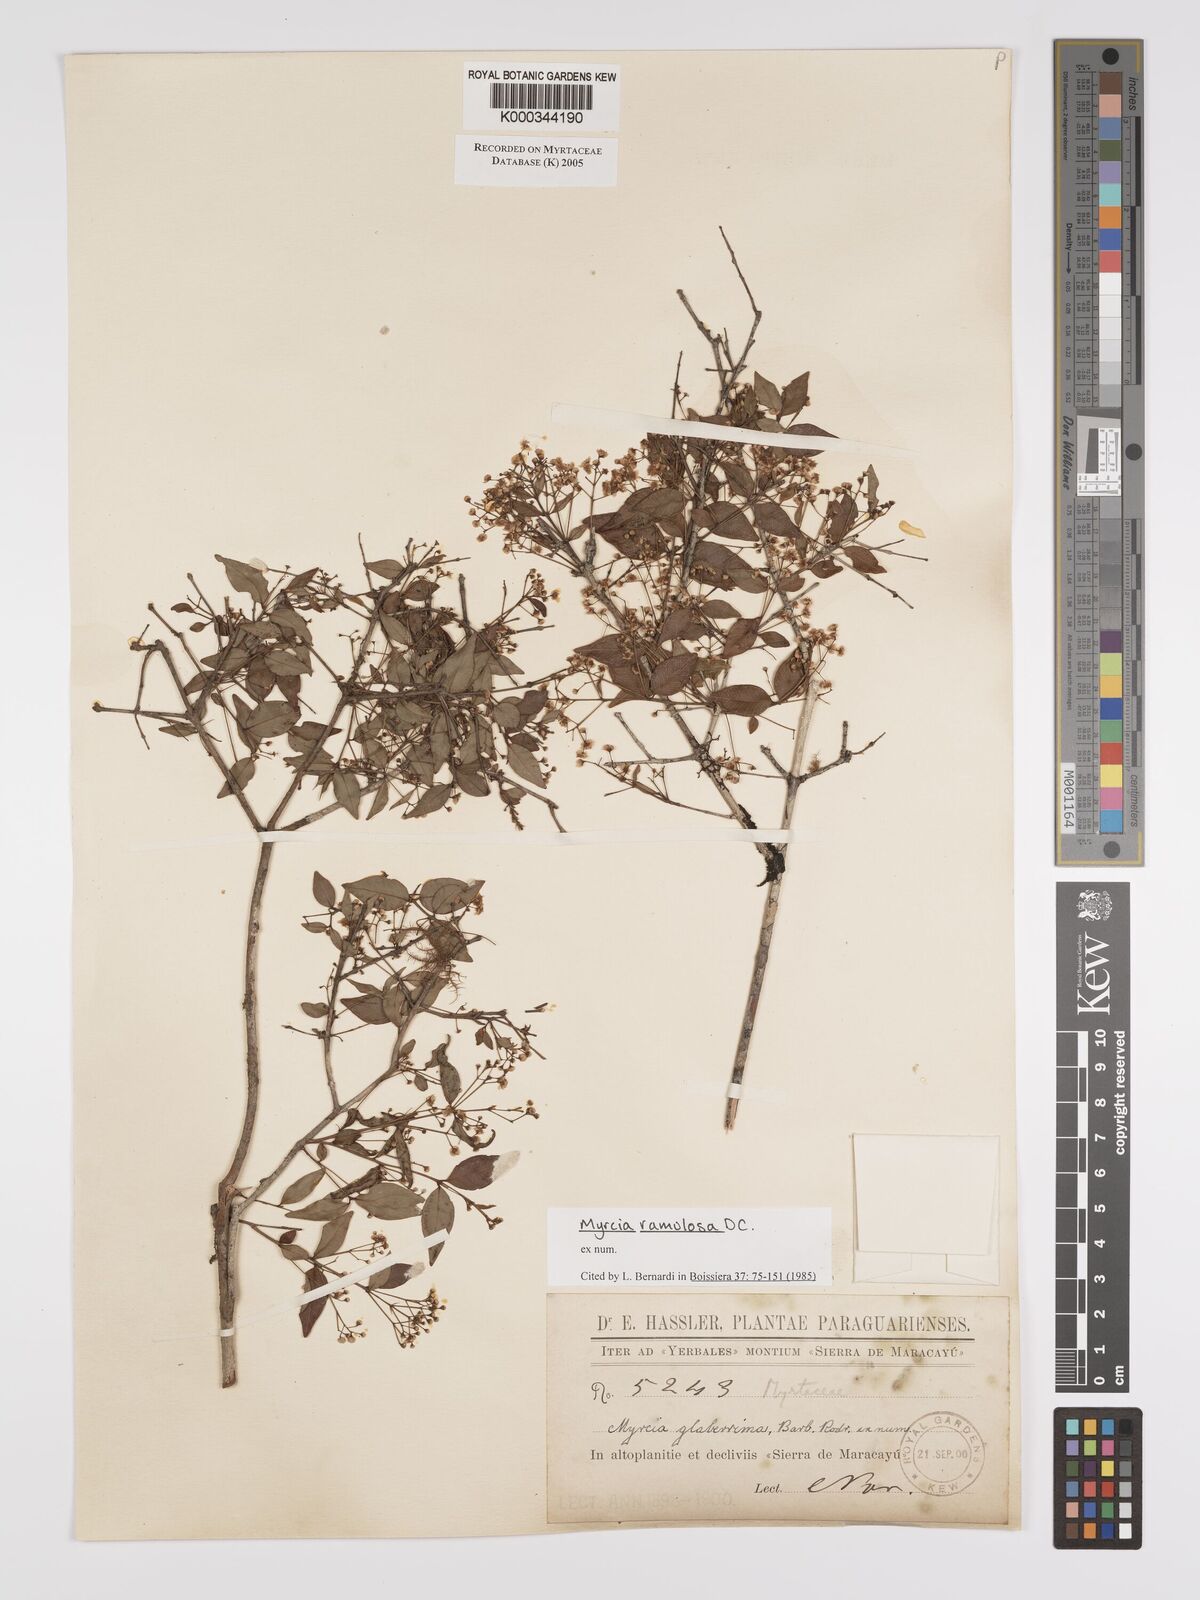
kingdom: Plantae
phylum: Tracheophyta
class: Magnoliopsida
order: Myrtales
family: Myrtaceae
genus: Myrcia
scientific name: Myrcia selloi
